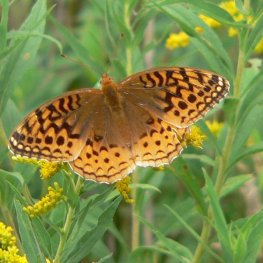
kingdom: Animalia
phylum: Arthropoda
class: Insecta
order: Lepidoptera
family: Nymphalidae
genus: Speyeria
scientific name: Speyeria cybele
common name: Great Spangled Fritillary
